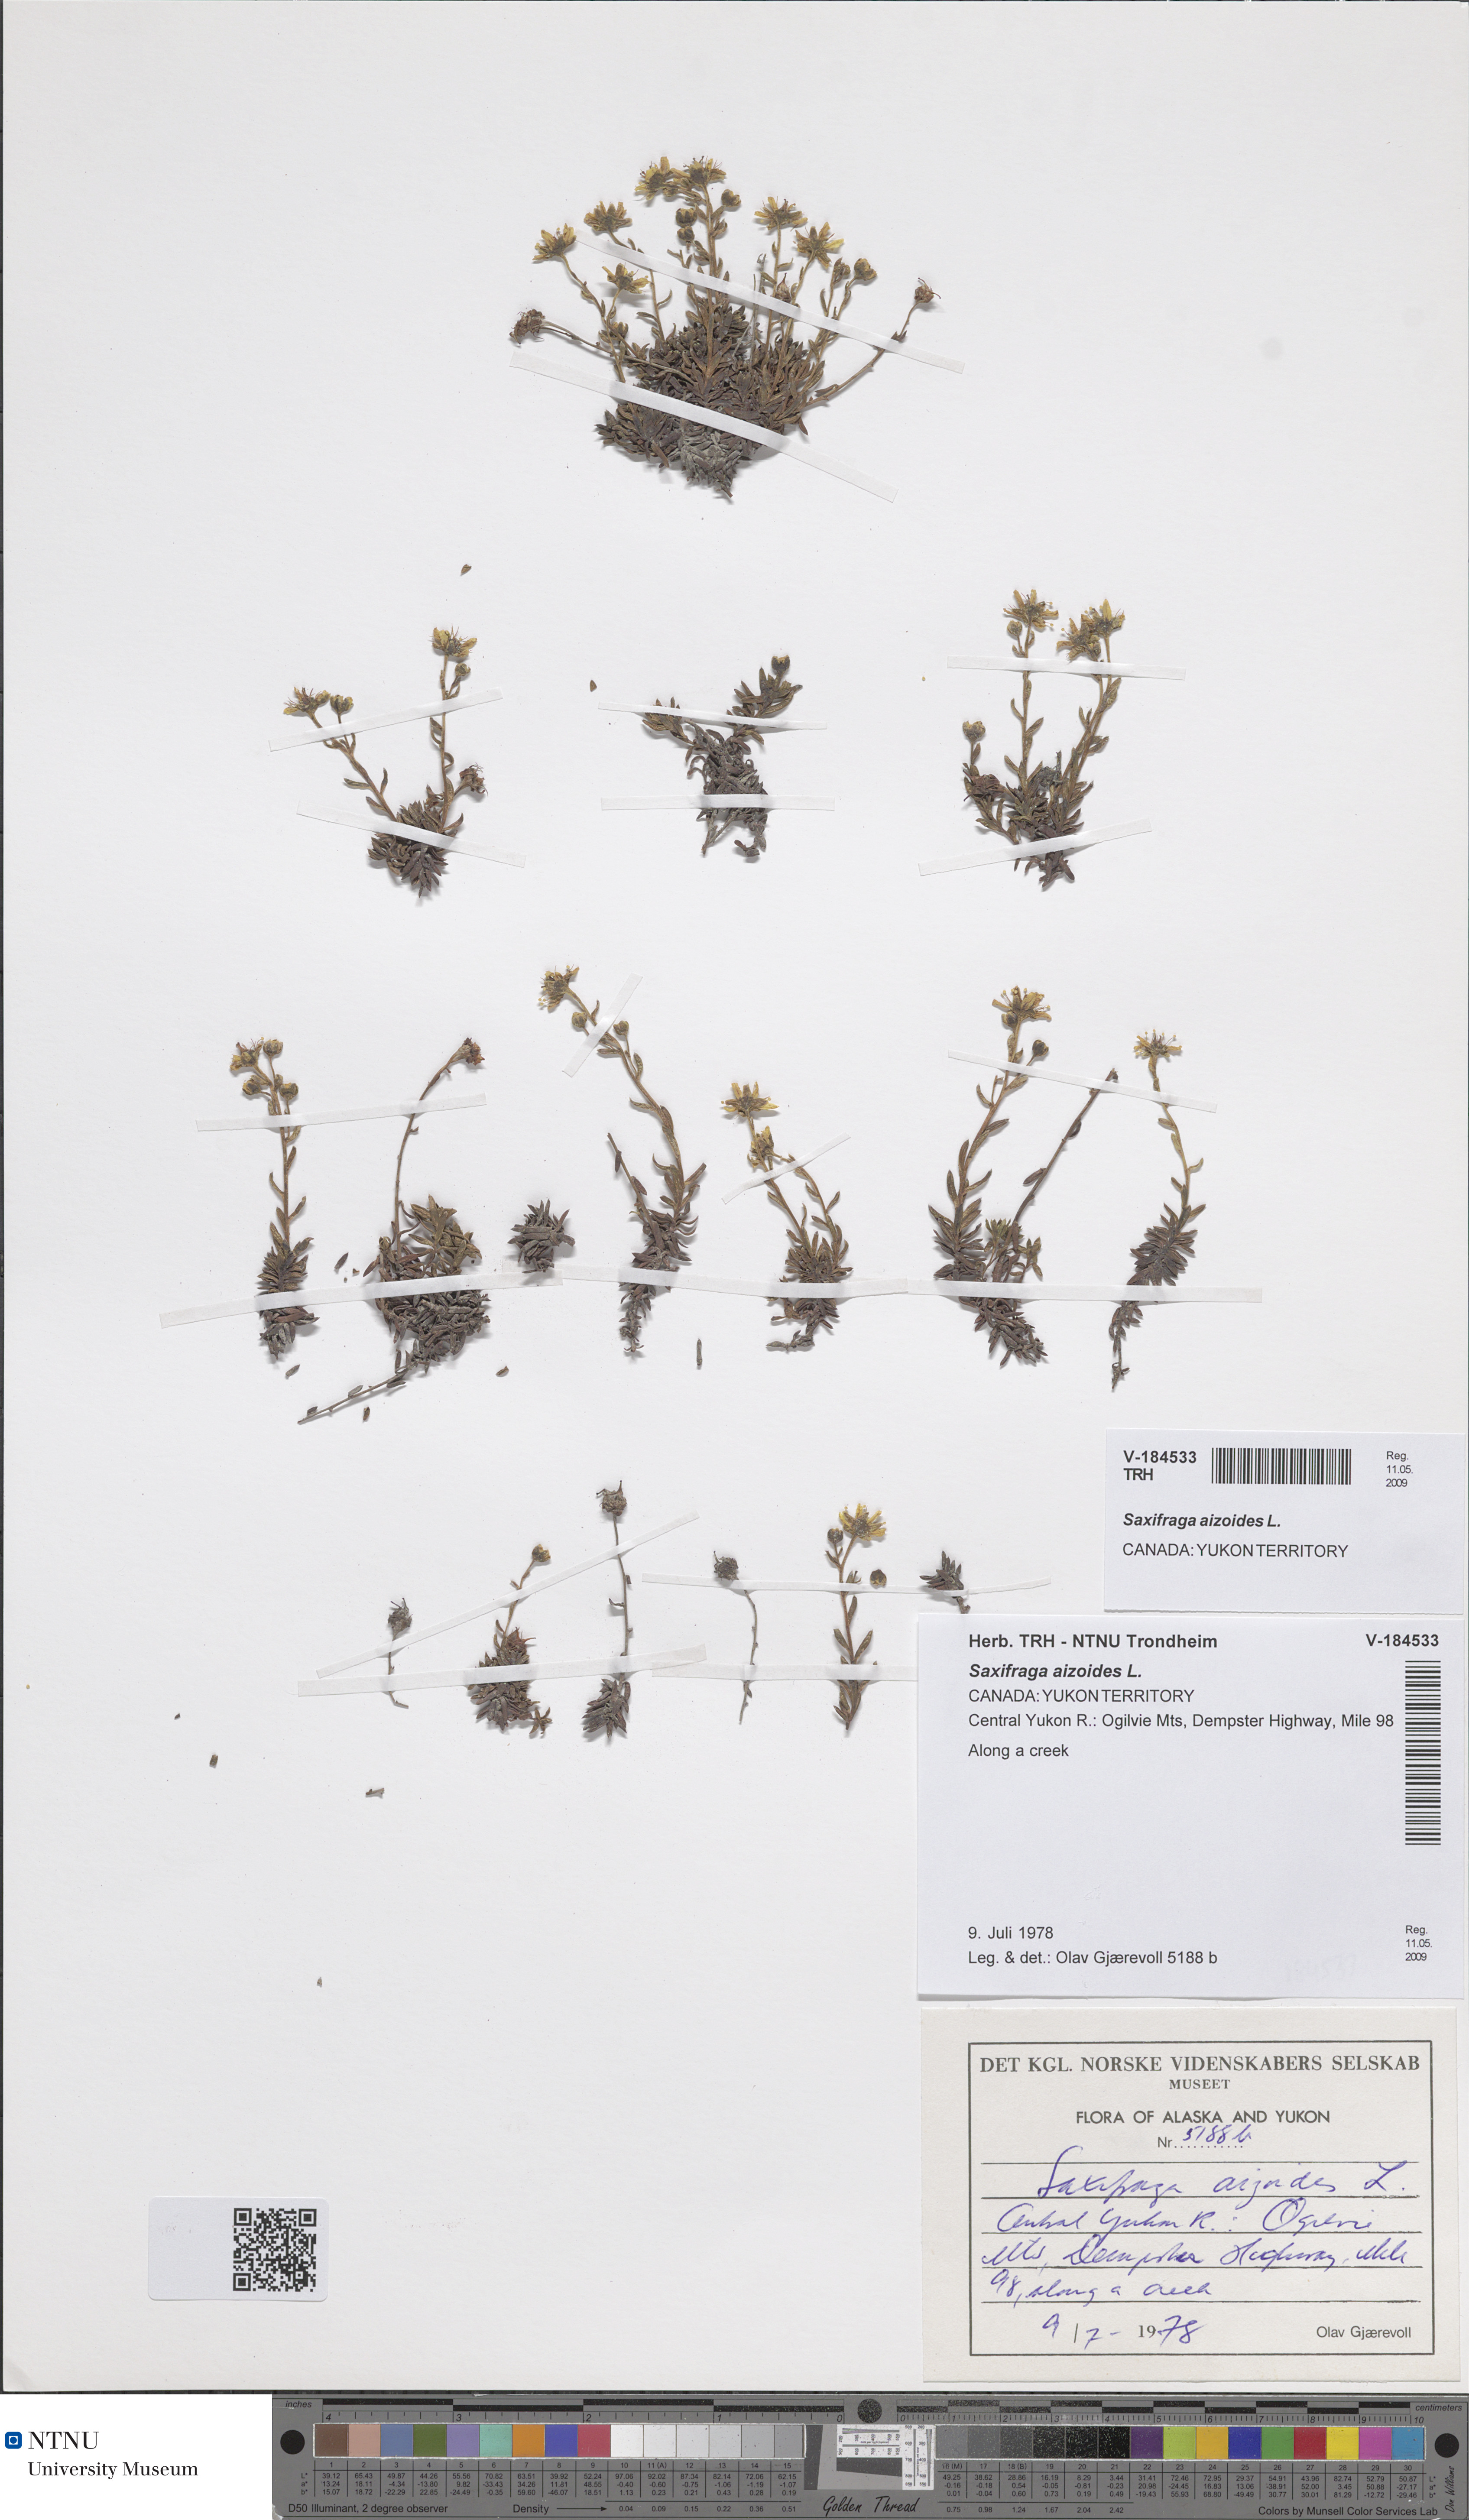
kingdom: Plantae
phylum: Tracheophyta
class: Magnoliopsida
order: Saxifragales
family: Saxifragaceae
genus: Saxifraga
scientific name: Saxifraga aizoides
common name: Yellow mountain saxifrage
